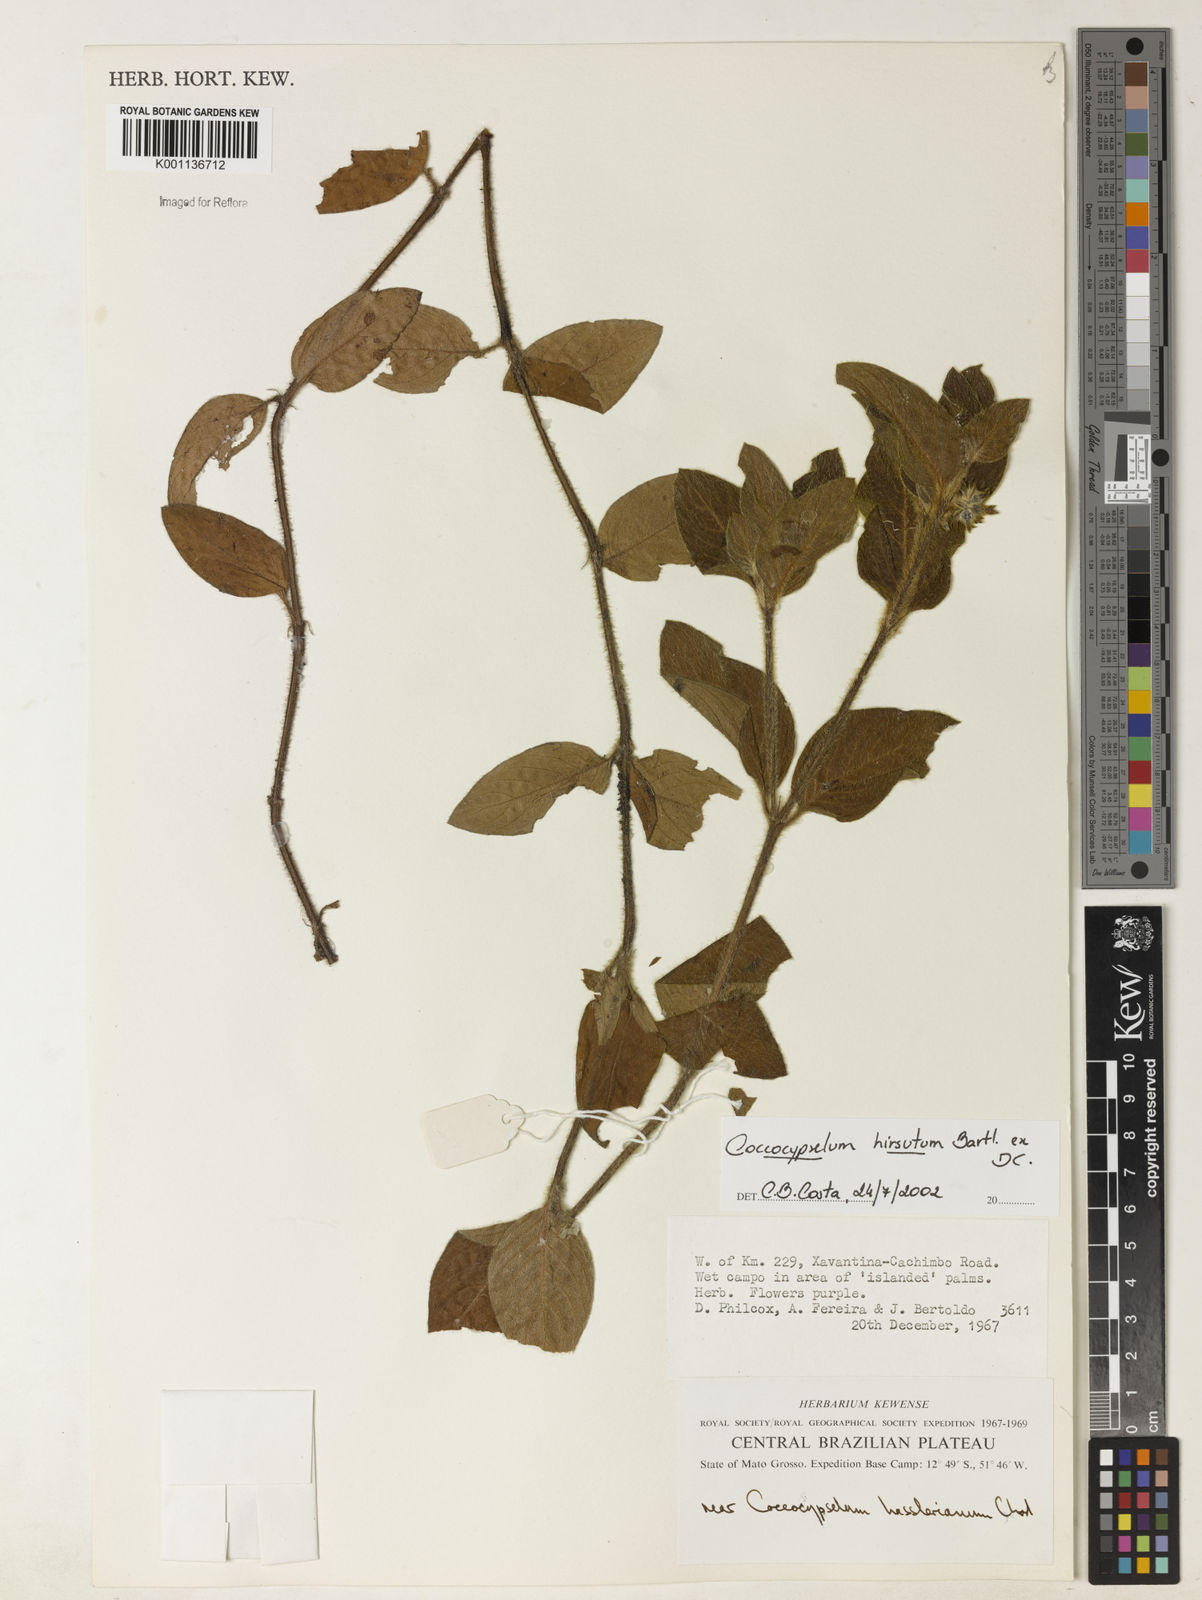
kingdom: Plantae
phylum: Tracheophyta
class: Magnoliopsida
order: Gentianales
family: Rubiaceae
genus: Coccocypselum
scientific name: Coccocypselum hirsutum
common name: Yerba de guava
